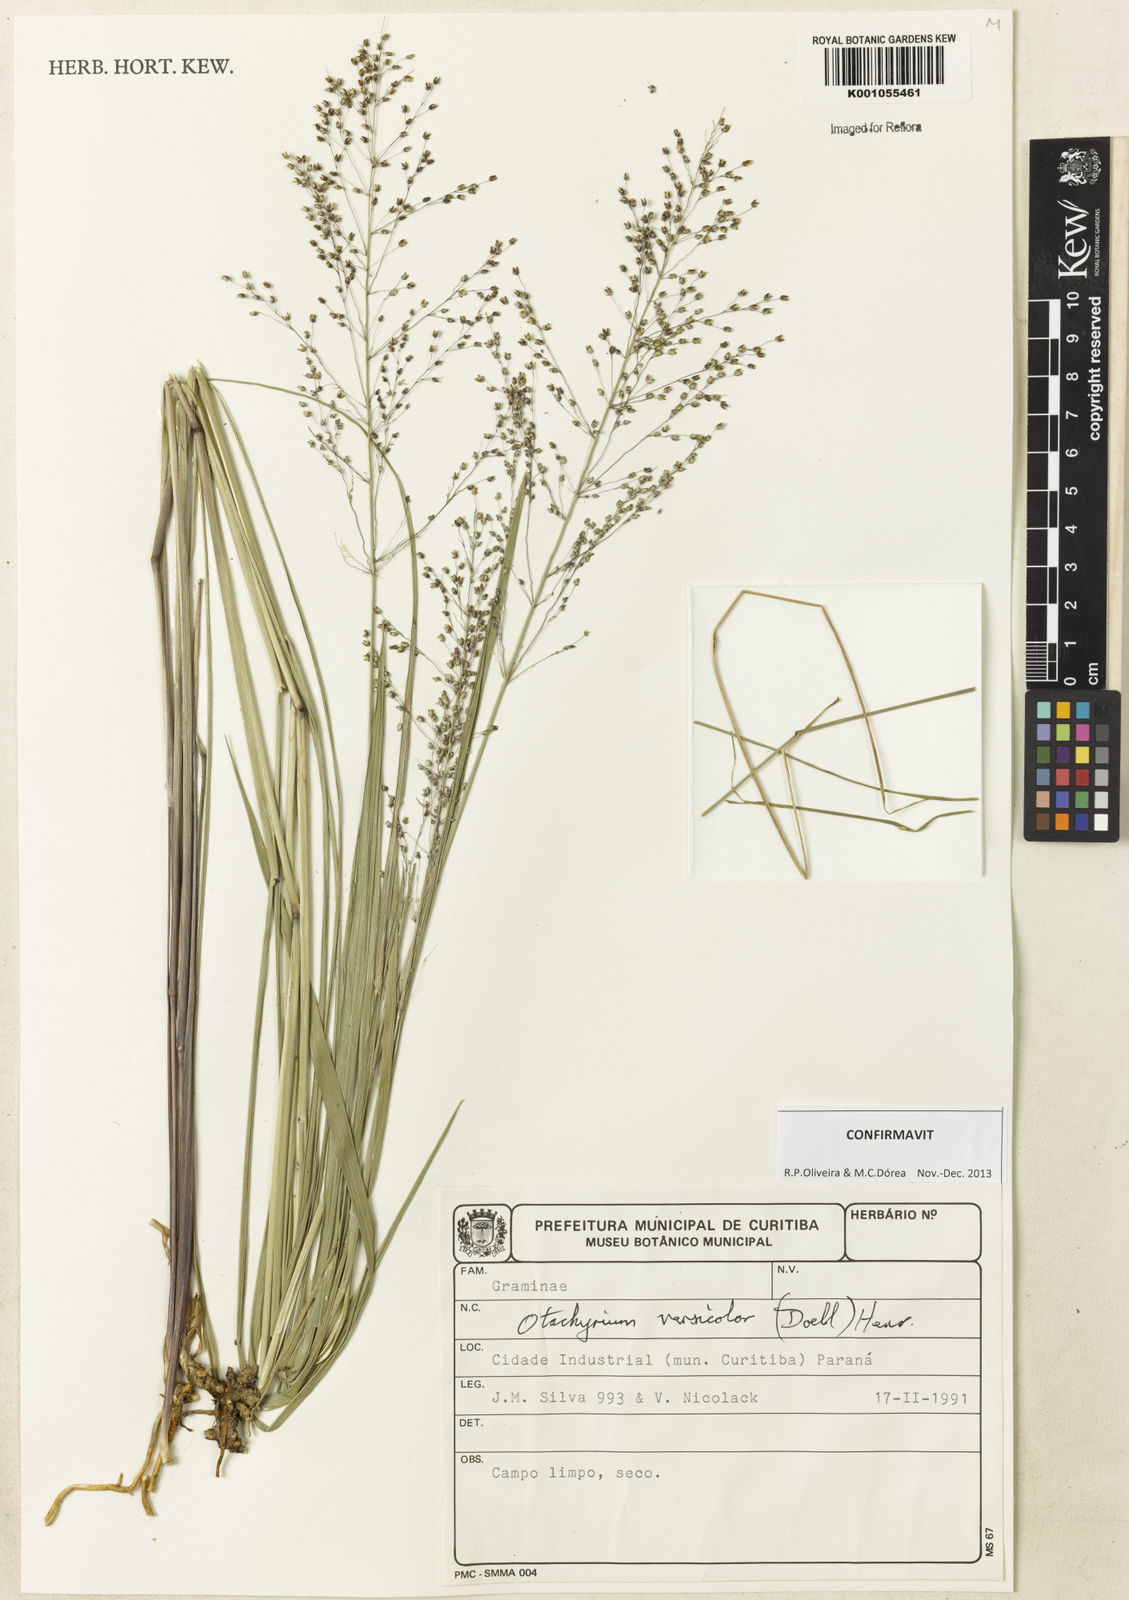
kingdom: Plantae
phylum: Tracheophyta
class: Liliopsida
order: Poales
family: Poaceae
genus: Otachyrium
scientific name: Otachyrium
